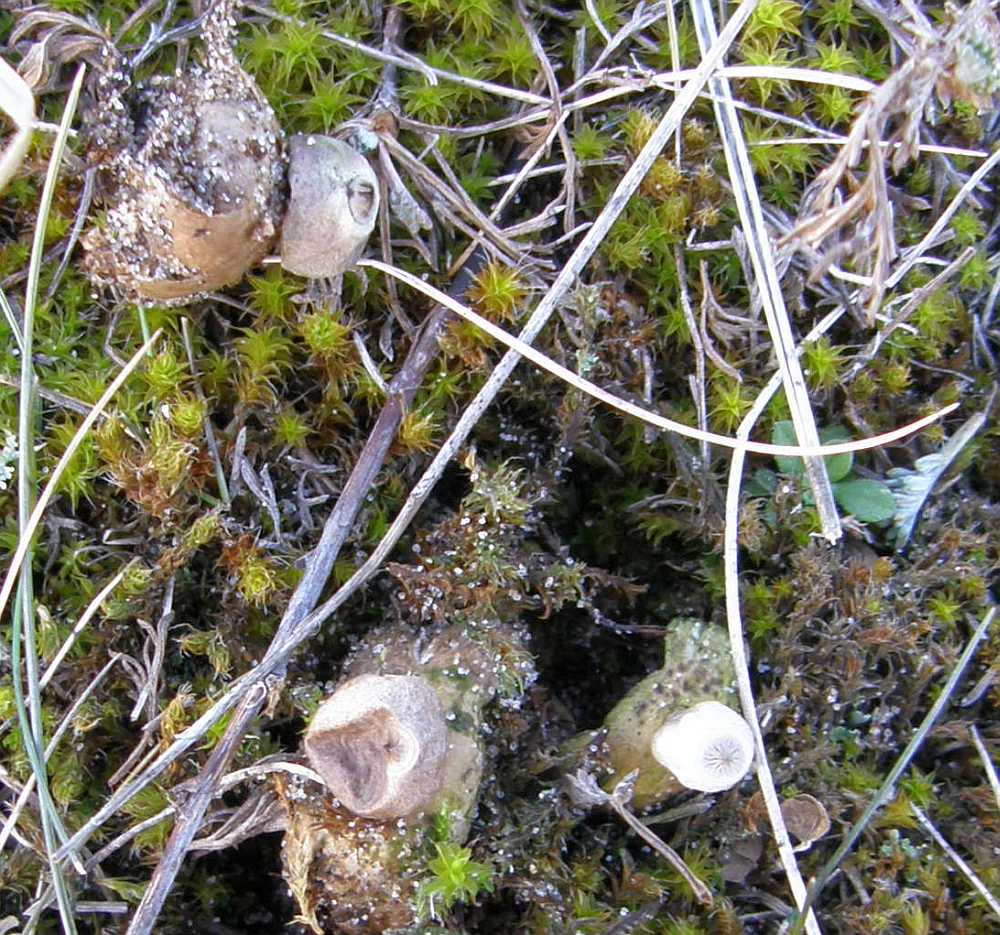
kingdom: Fungi
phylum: Basidiomycota
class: Agaricomycetes
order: Geastrales
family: Geastraceae
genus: Geastrum
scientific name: Geastrum striatum
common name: dværg-stjernebold
